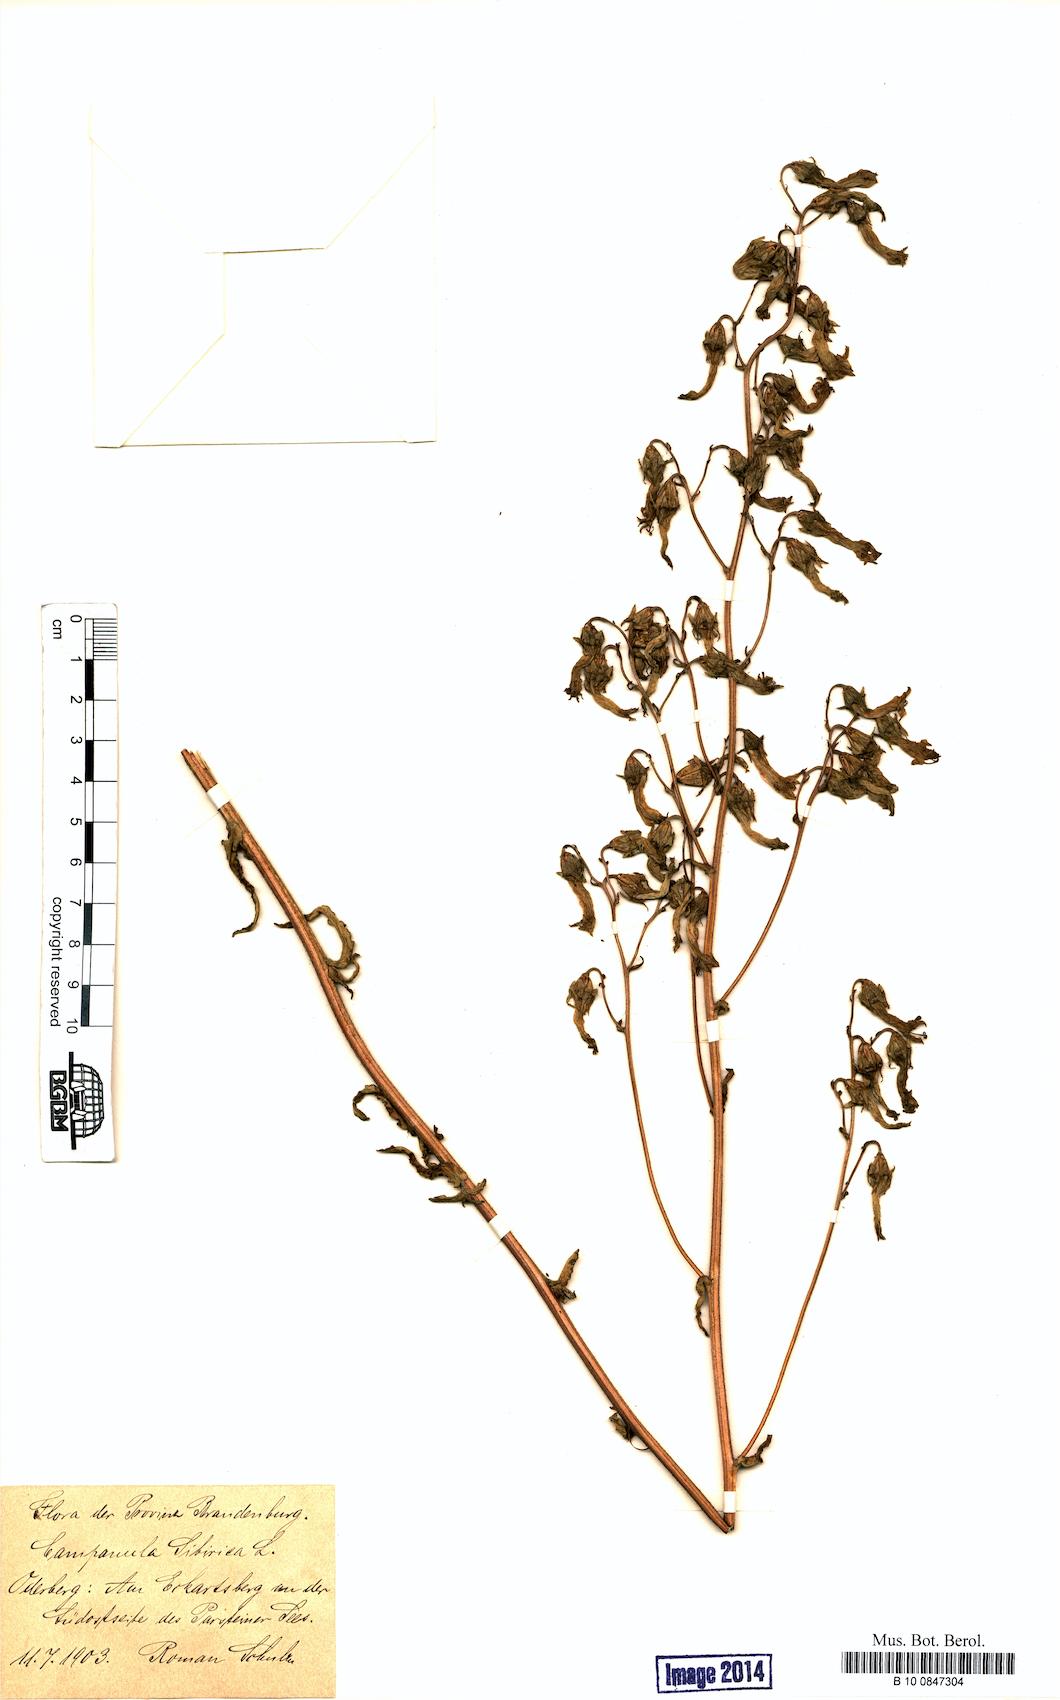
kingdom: Plantae
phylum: Tracheophyta
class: Magnoliopsida
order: Asterales
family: Campanulaceae
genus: Campanula
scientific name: Campanula sibirica
